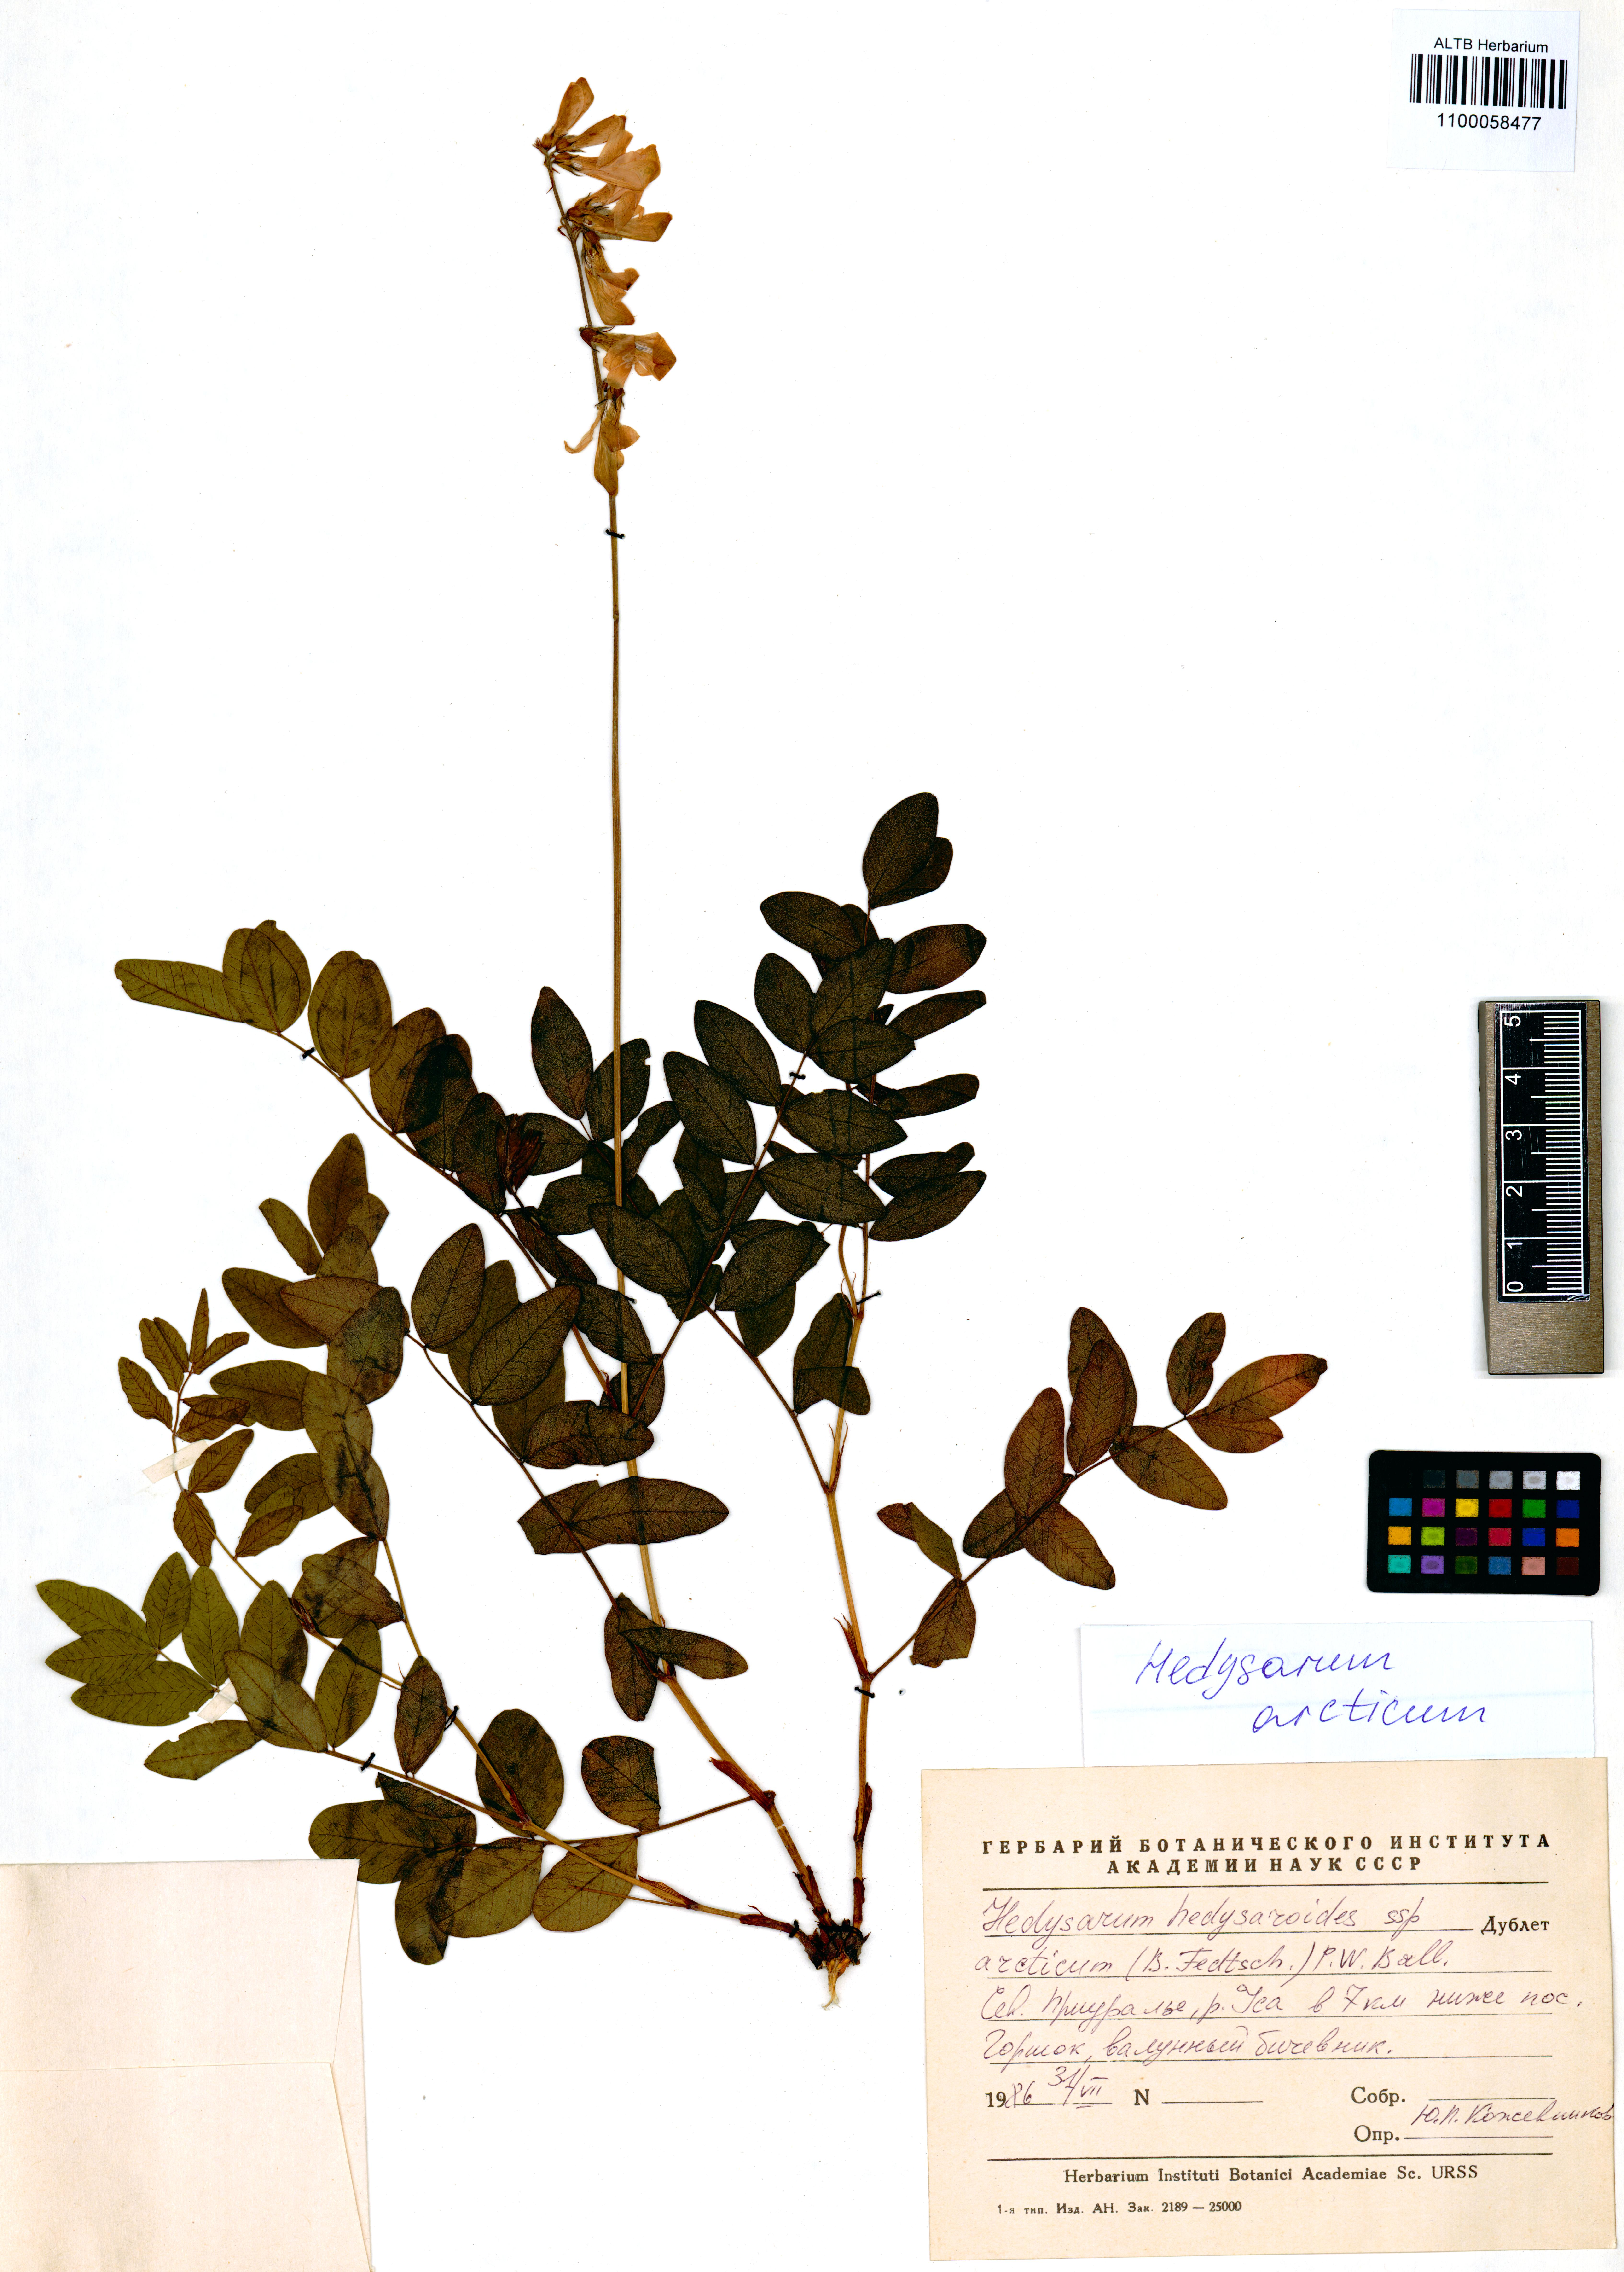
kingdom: Plantae
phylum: Tracheophyta
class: Magnoliopsida
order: Fabales
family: Fabaceae
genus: Hedysarum
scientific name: Hedysarum hedysaroides
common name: Alpine french-honeysuckle
